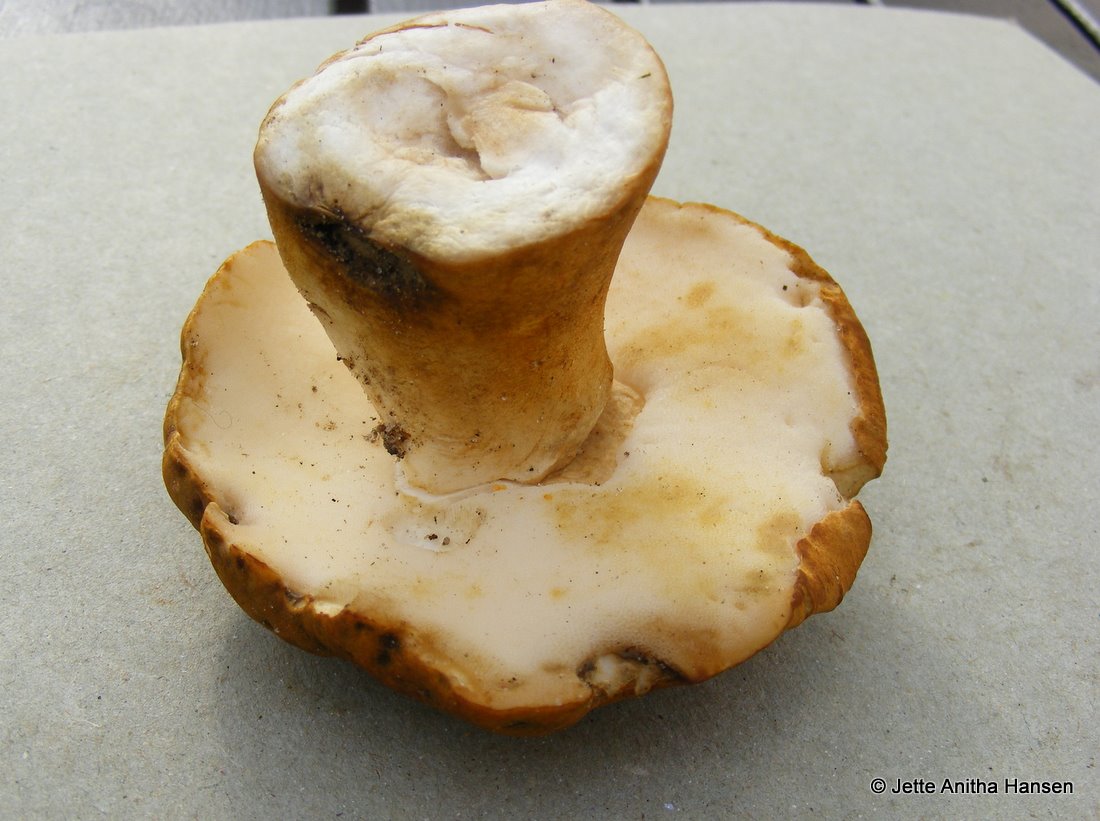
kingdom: Fungi
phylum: Basidiomycota
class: Agaricomycetes
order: Boletales
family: Gyroporaceae
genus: Gyroporus
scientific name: Gyroporus castaneus
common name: kastanie-kammerrørhat
